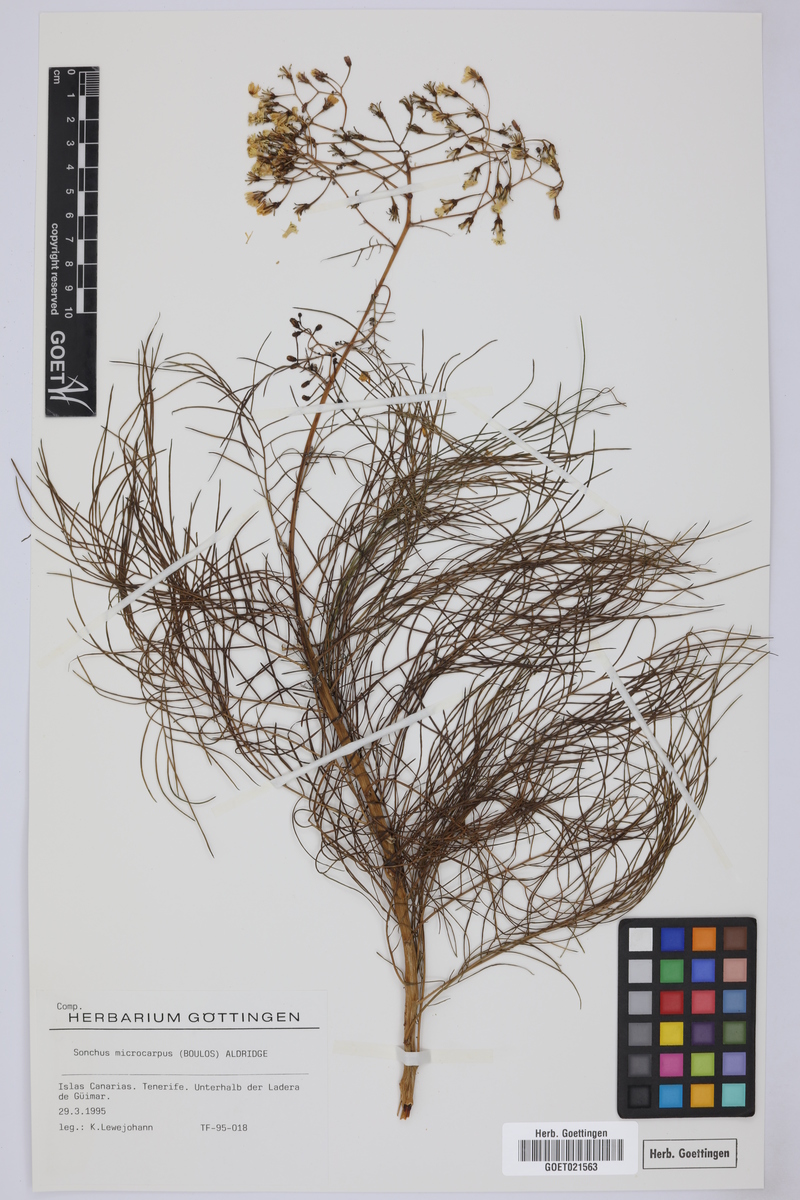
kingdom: Plantae
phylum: Tracheophyta
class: Magnoliopsida
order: Asterales
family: Asteraceae
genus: Sonchus
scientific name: Sonchus microcarpus
